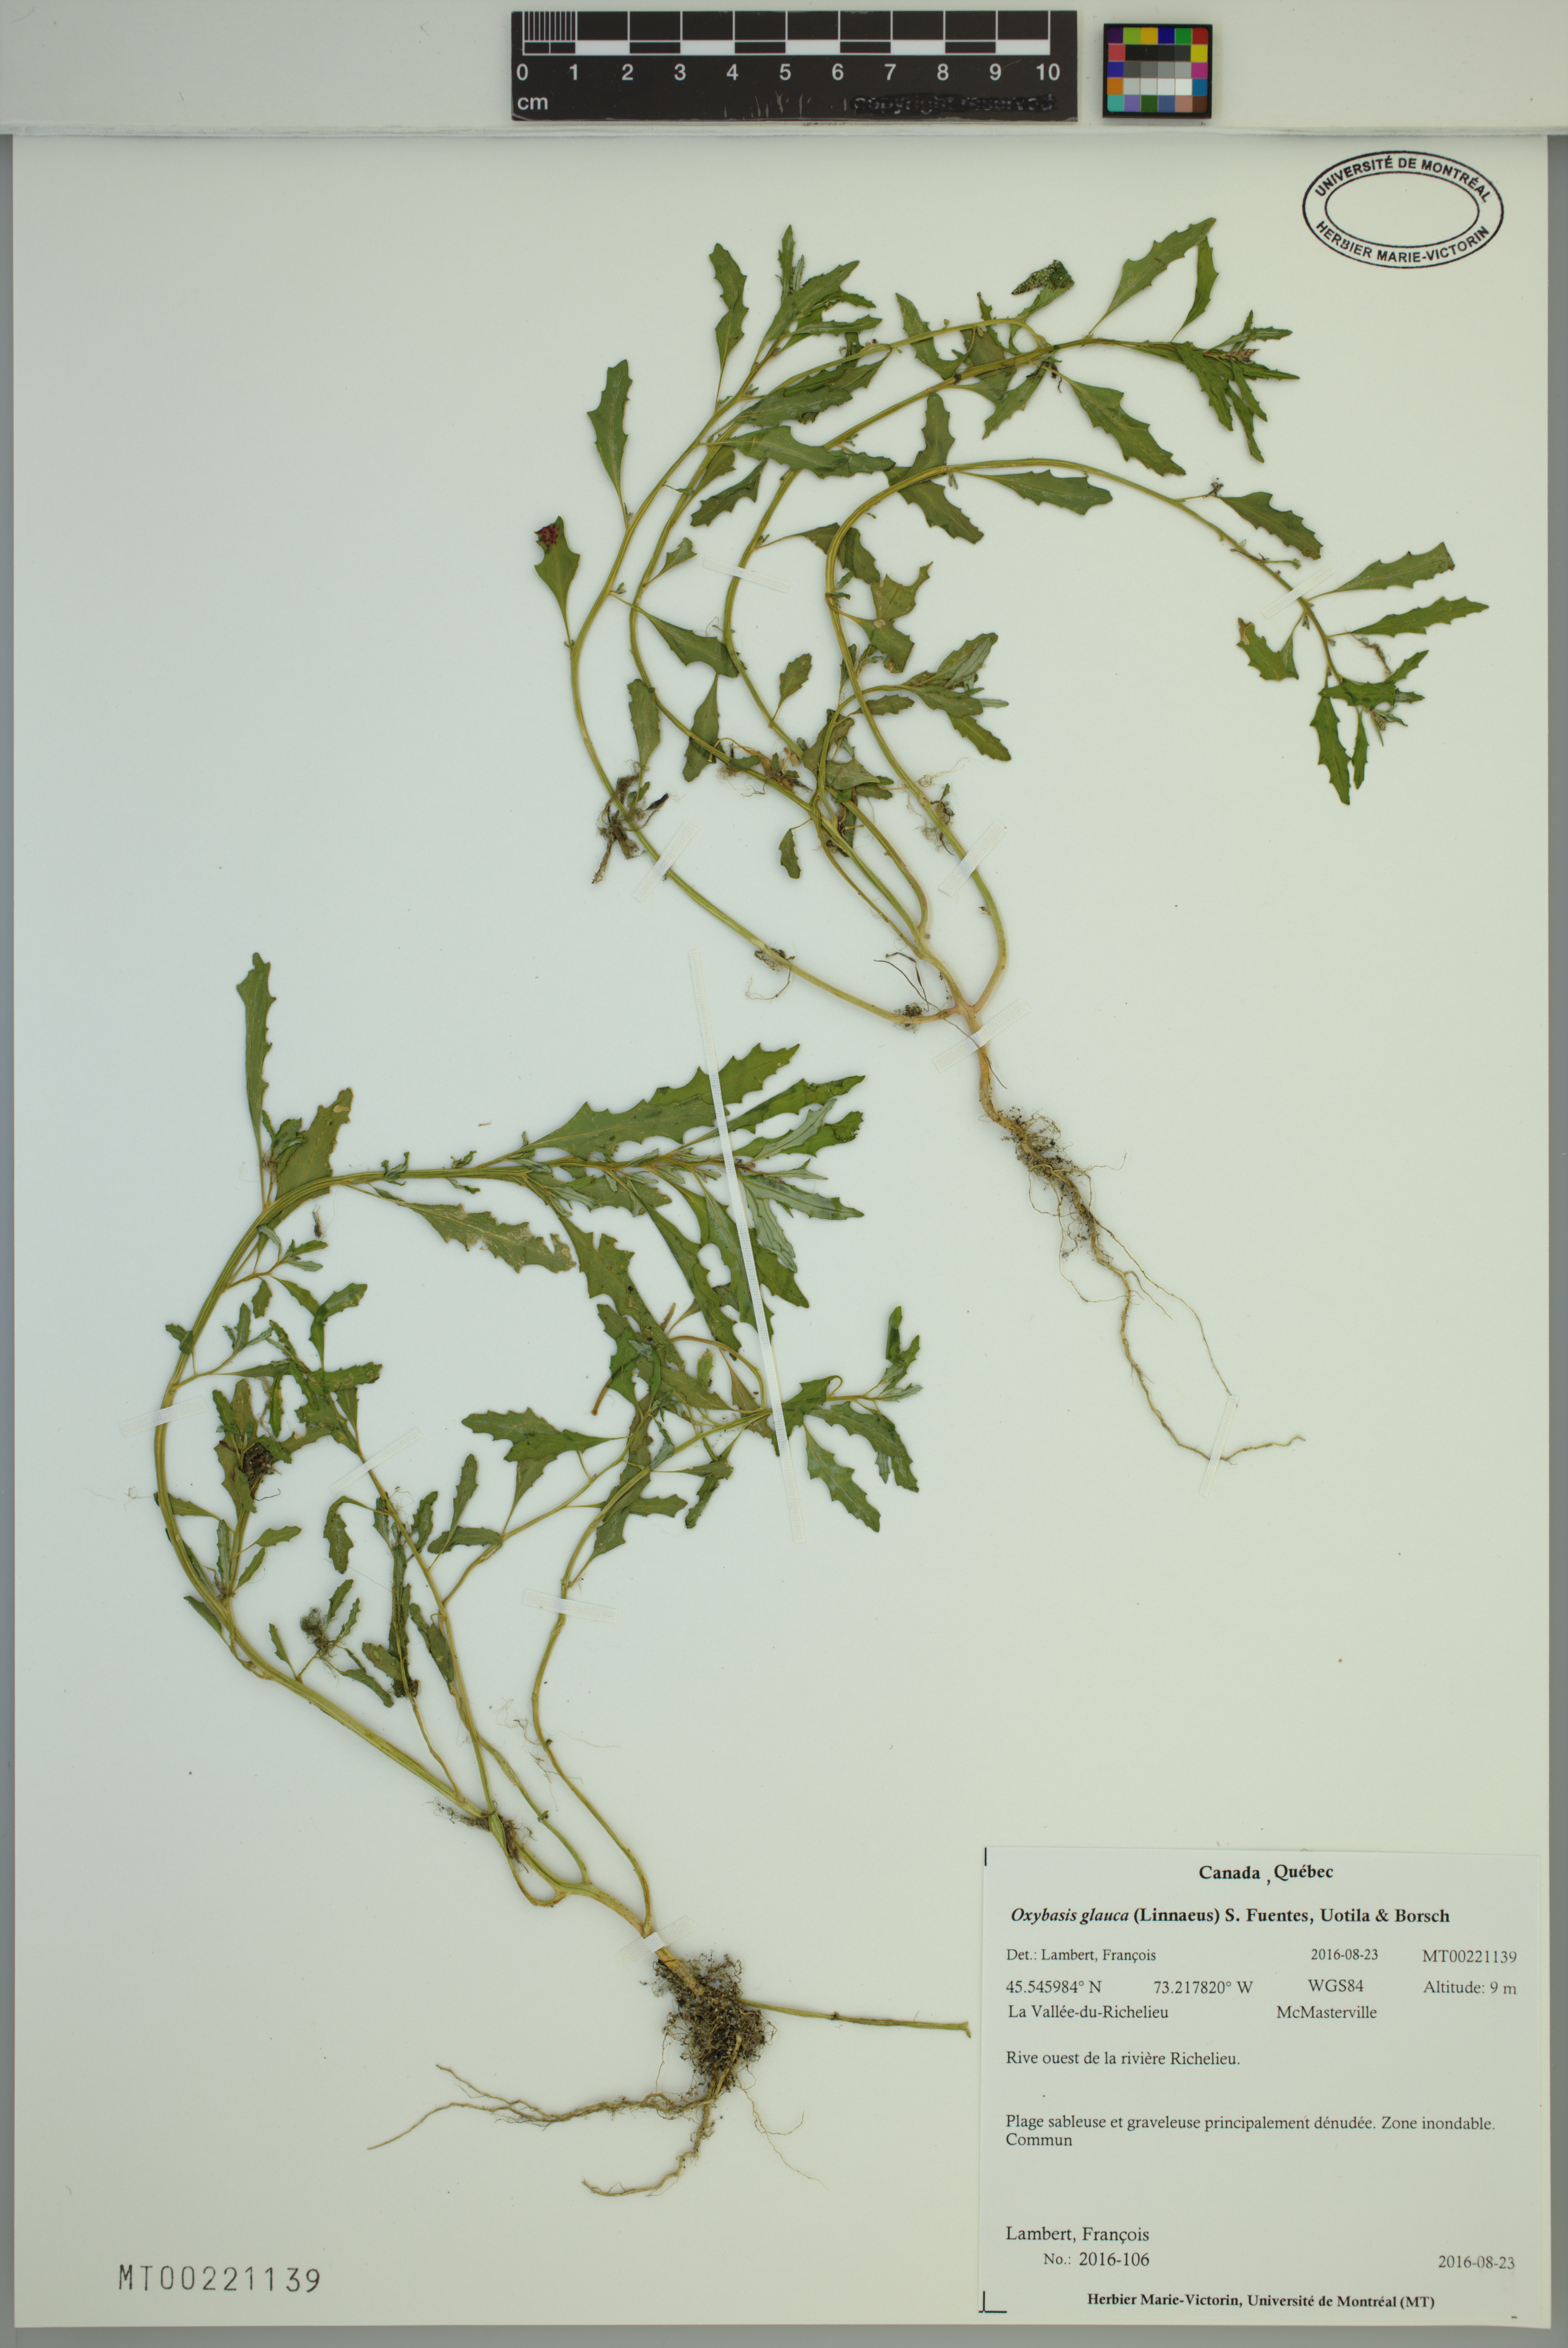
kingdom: Plantae
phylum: Tracheophyta
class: Magnoliopsida
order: Caryophyllales
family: Amaranthaceae
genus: Oxybasis
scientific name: Oxybasis glauca
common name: Glaucous goosefoot
